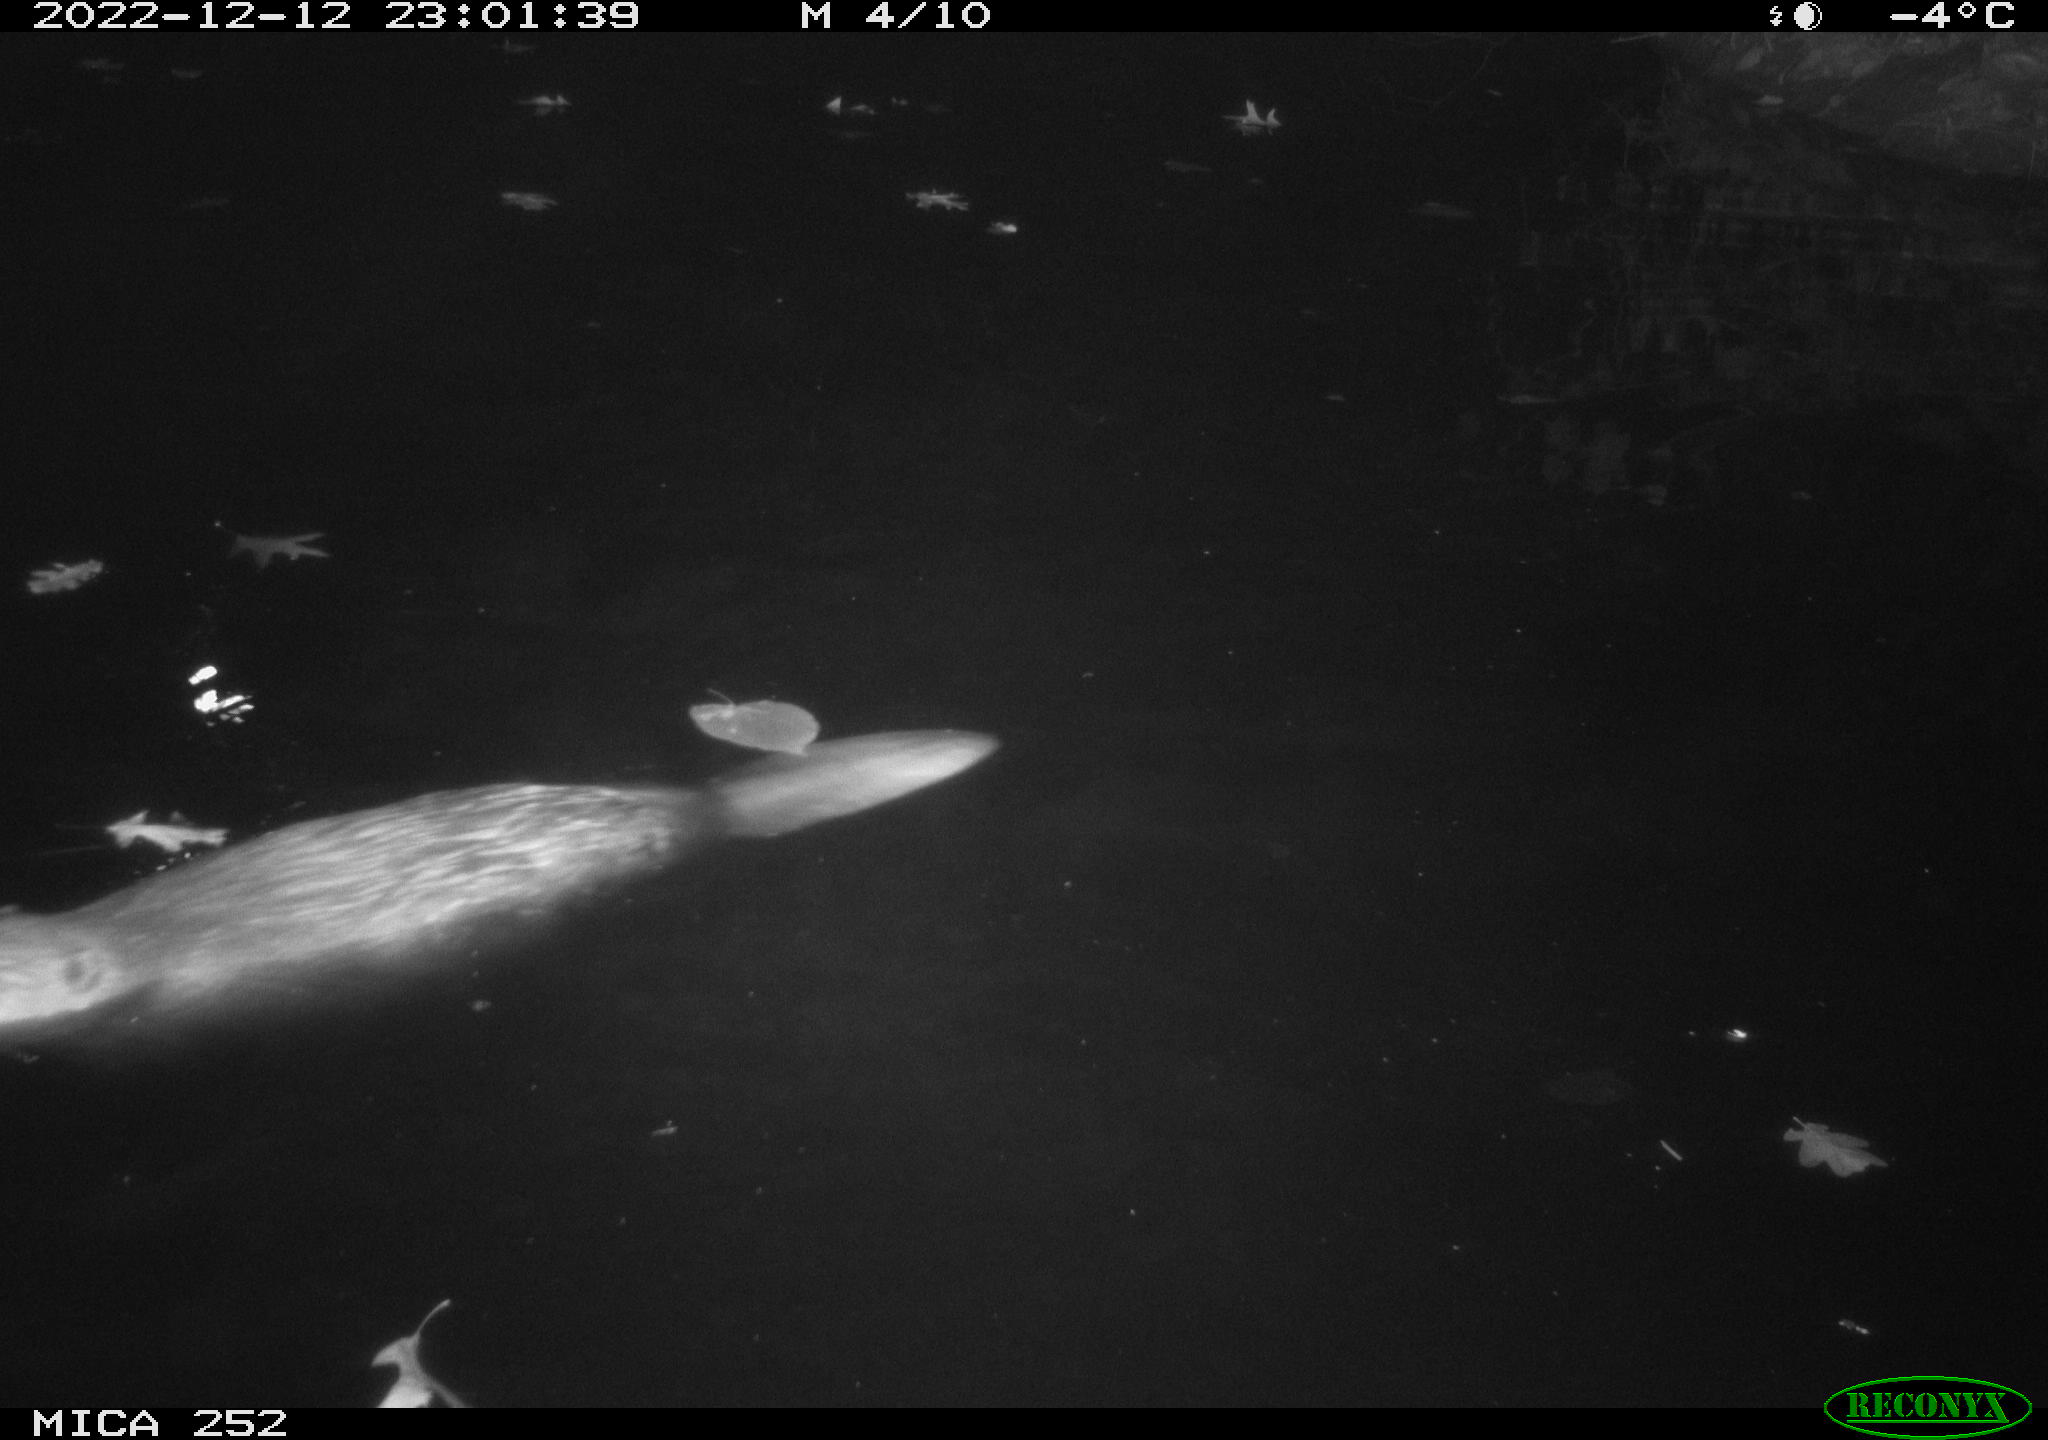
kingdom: Animalia
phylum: Chordata
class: Mammalia
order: Rodentia
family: Castoridae
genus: Castor
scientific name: Castor fiber
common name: Eurasian beaver
